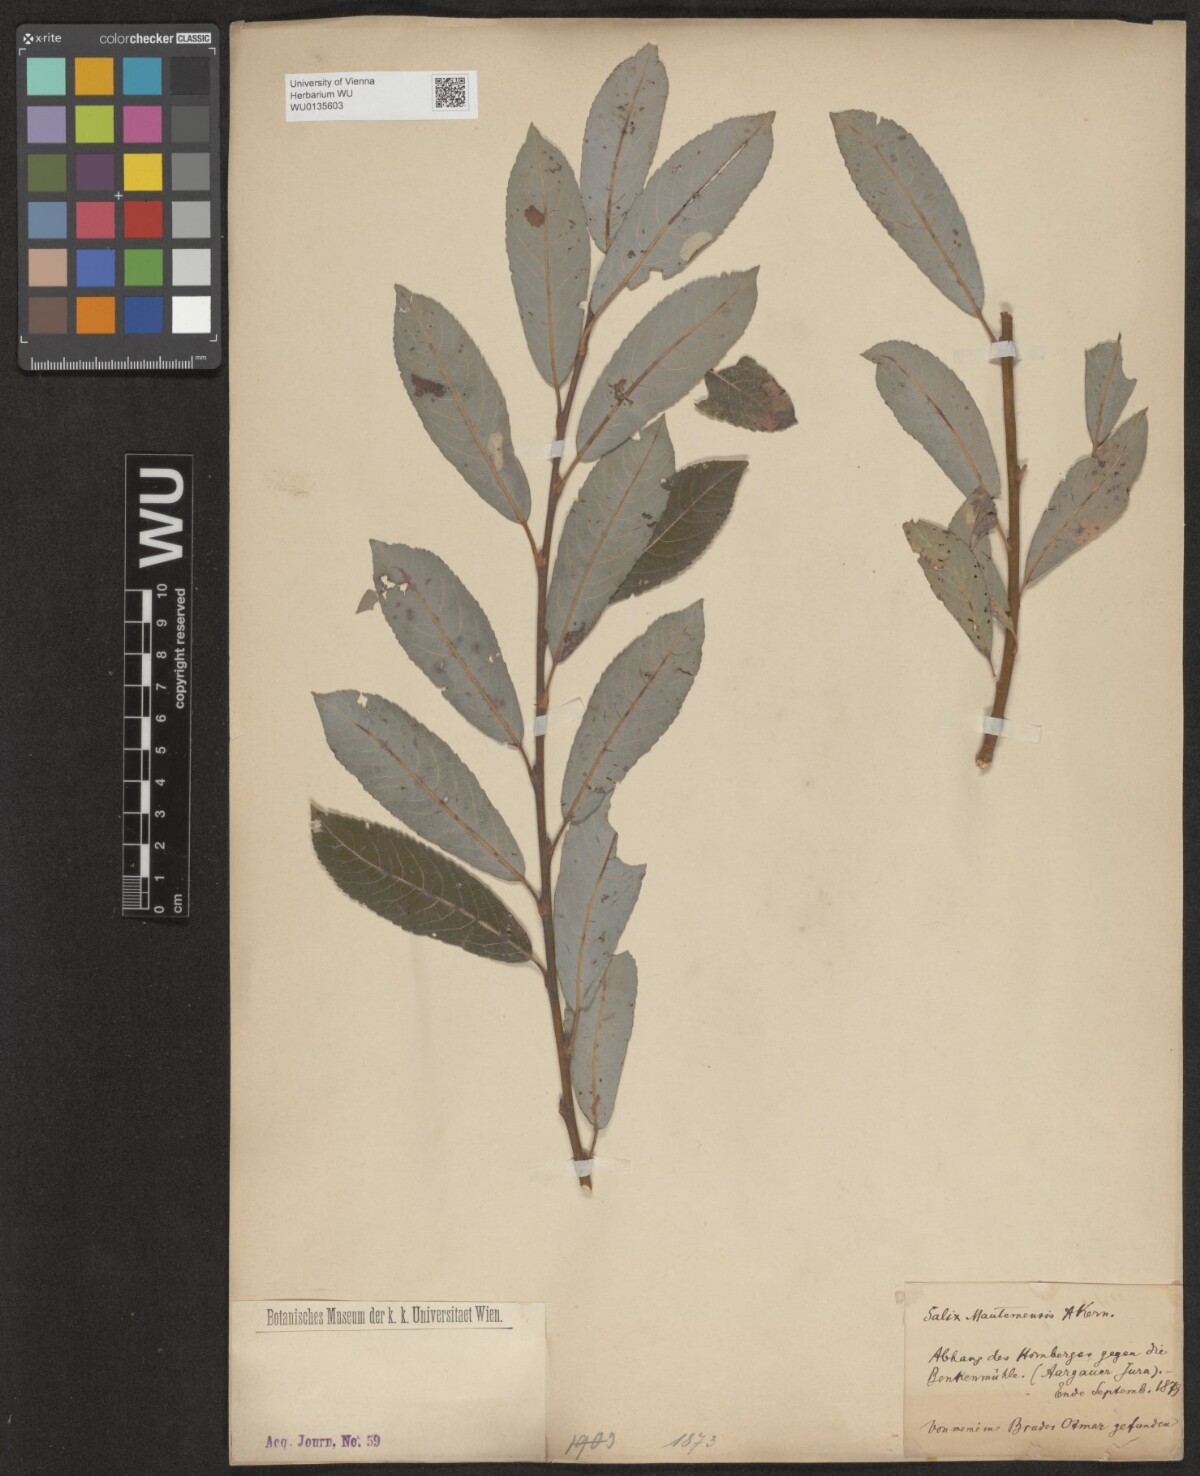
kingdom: Plantae
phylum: Tracheophyta
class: Magnoliopsida
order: Malpighiales
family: Salicaceae
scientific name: Salicaceae
